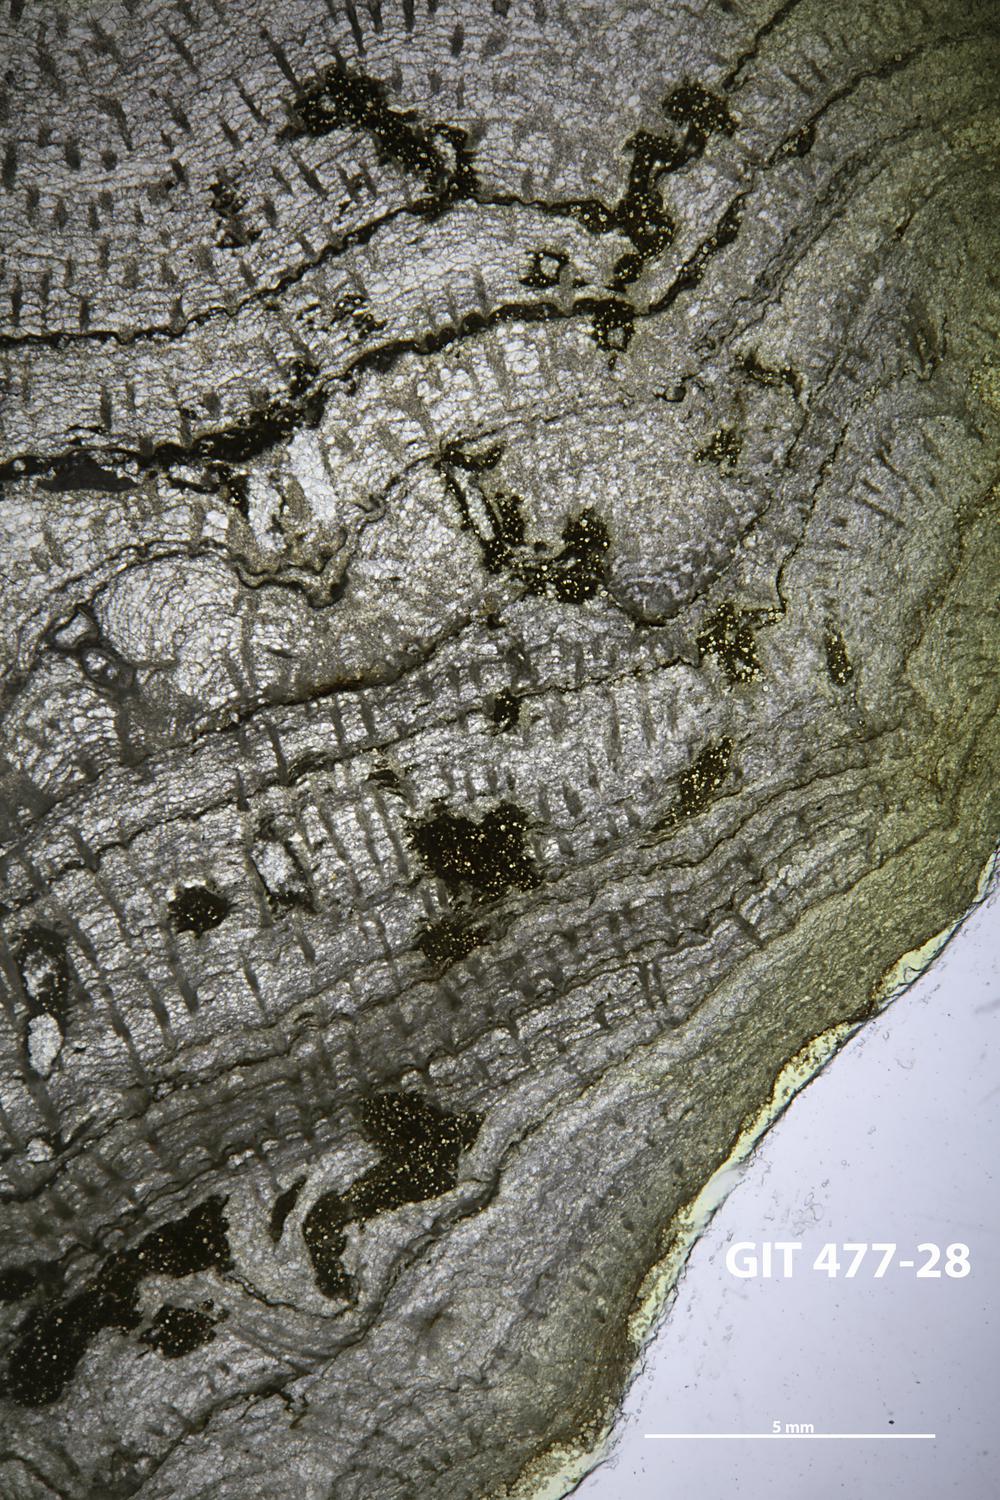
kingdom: Animalia
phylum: Porifera
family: Labechiidae
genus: Labechia
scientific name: Labechia
